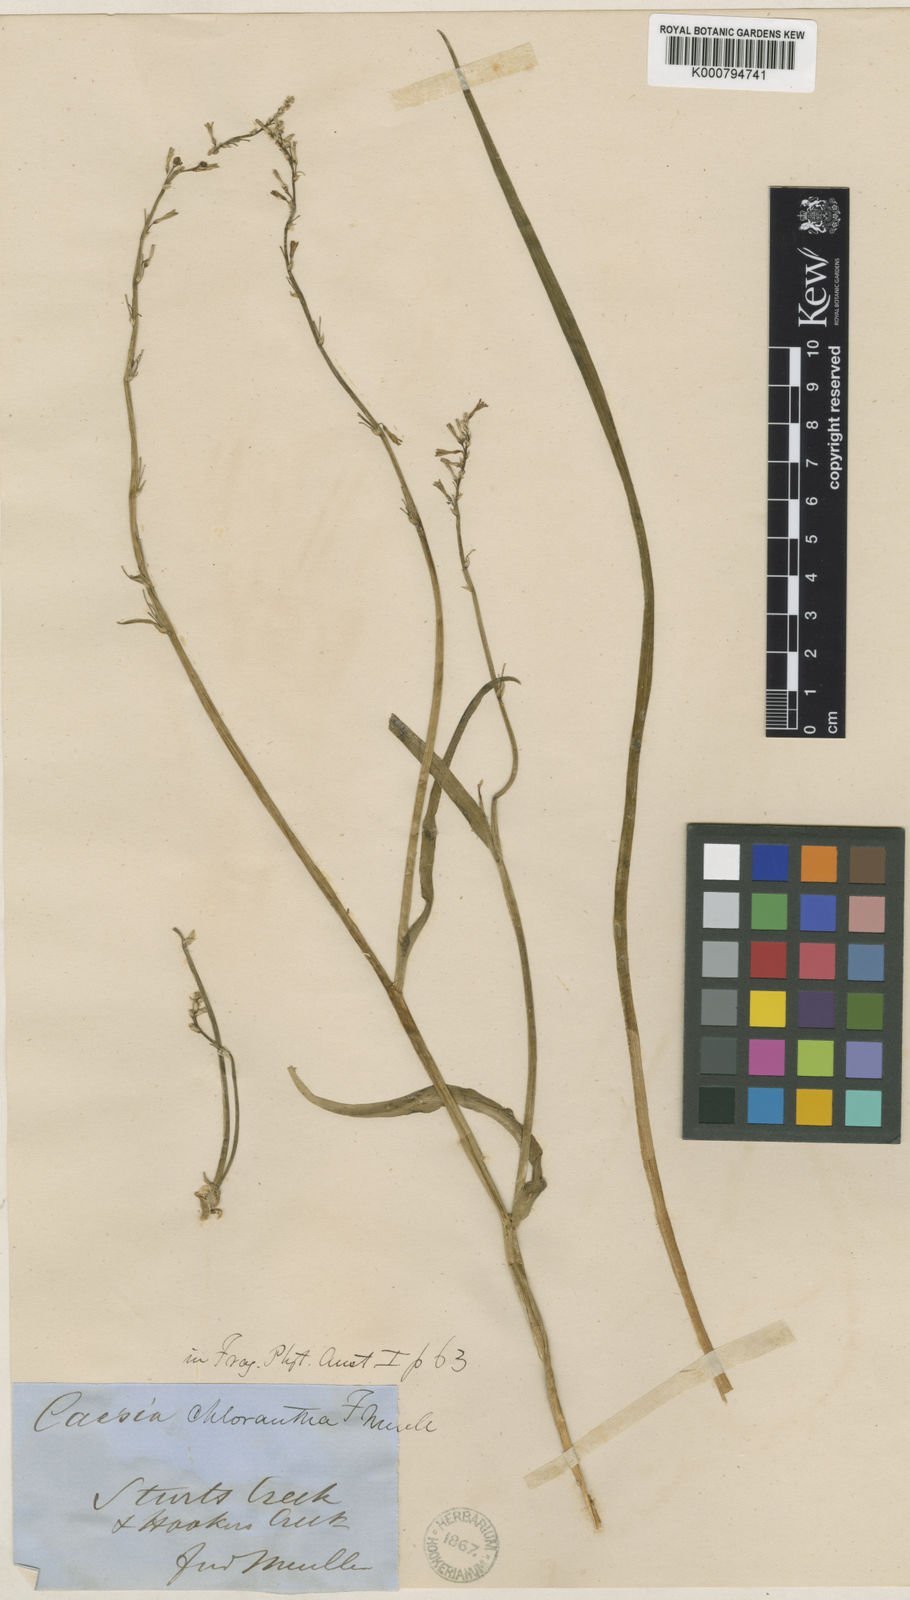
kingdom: Plantae
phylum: Tracheophyta
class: Liliopsida
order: Asparagales
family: Asphodelaceae
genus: Caesia
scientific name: Caesia chlorantha
